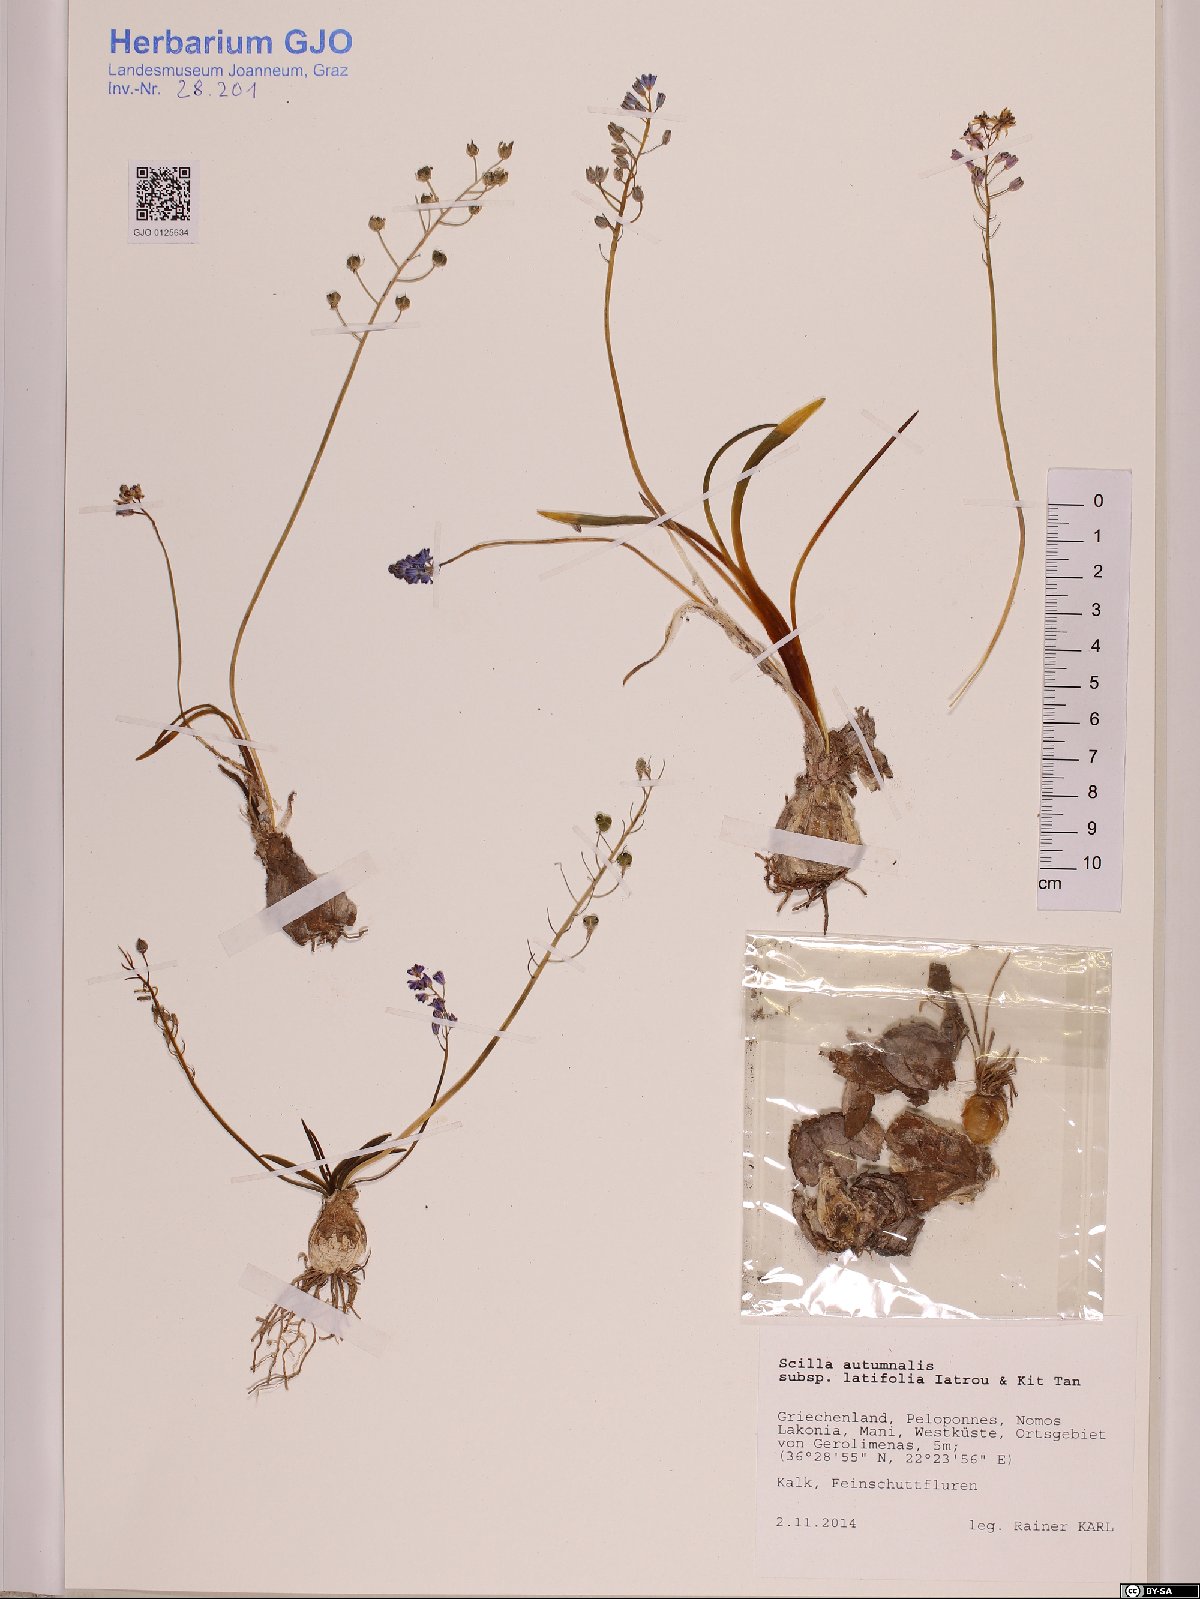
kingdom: Plantae
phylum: Tracheophyta
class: Liliopsida
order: Asparagales
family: Asparagaceae
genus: Prospero
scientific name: Prospero autumnale
